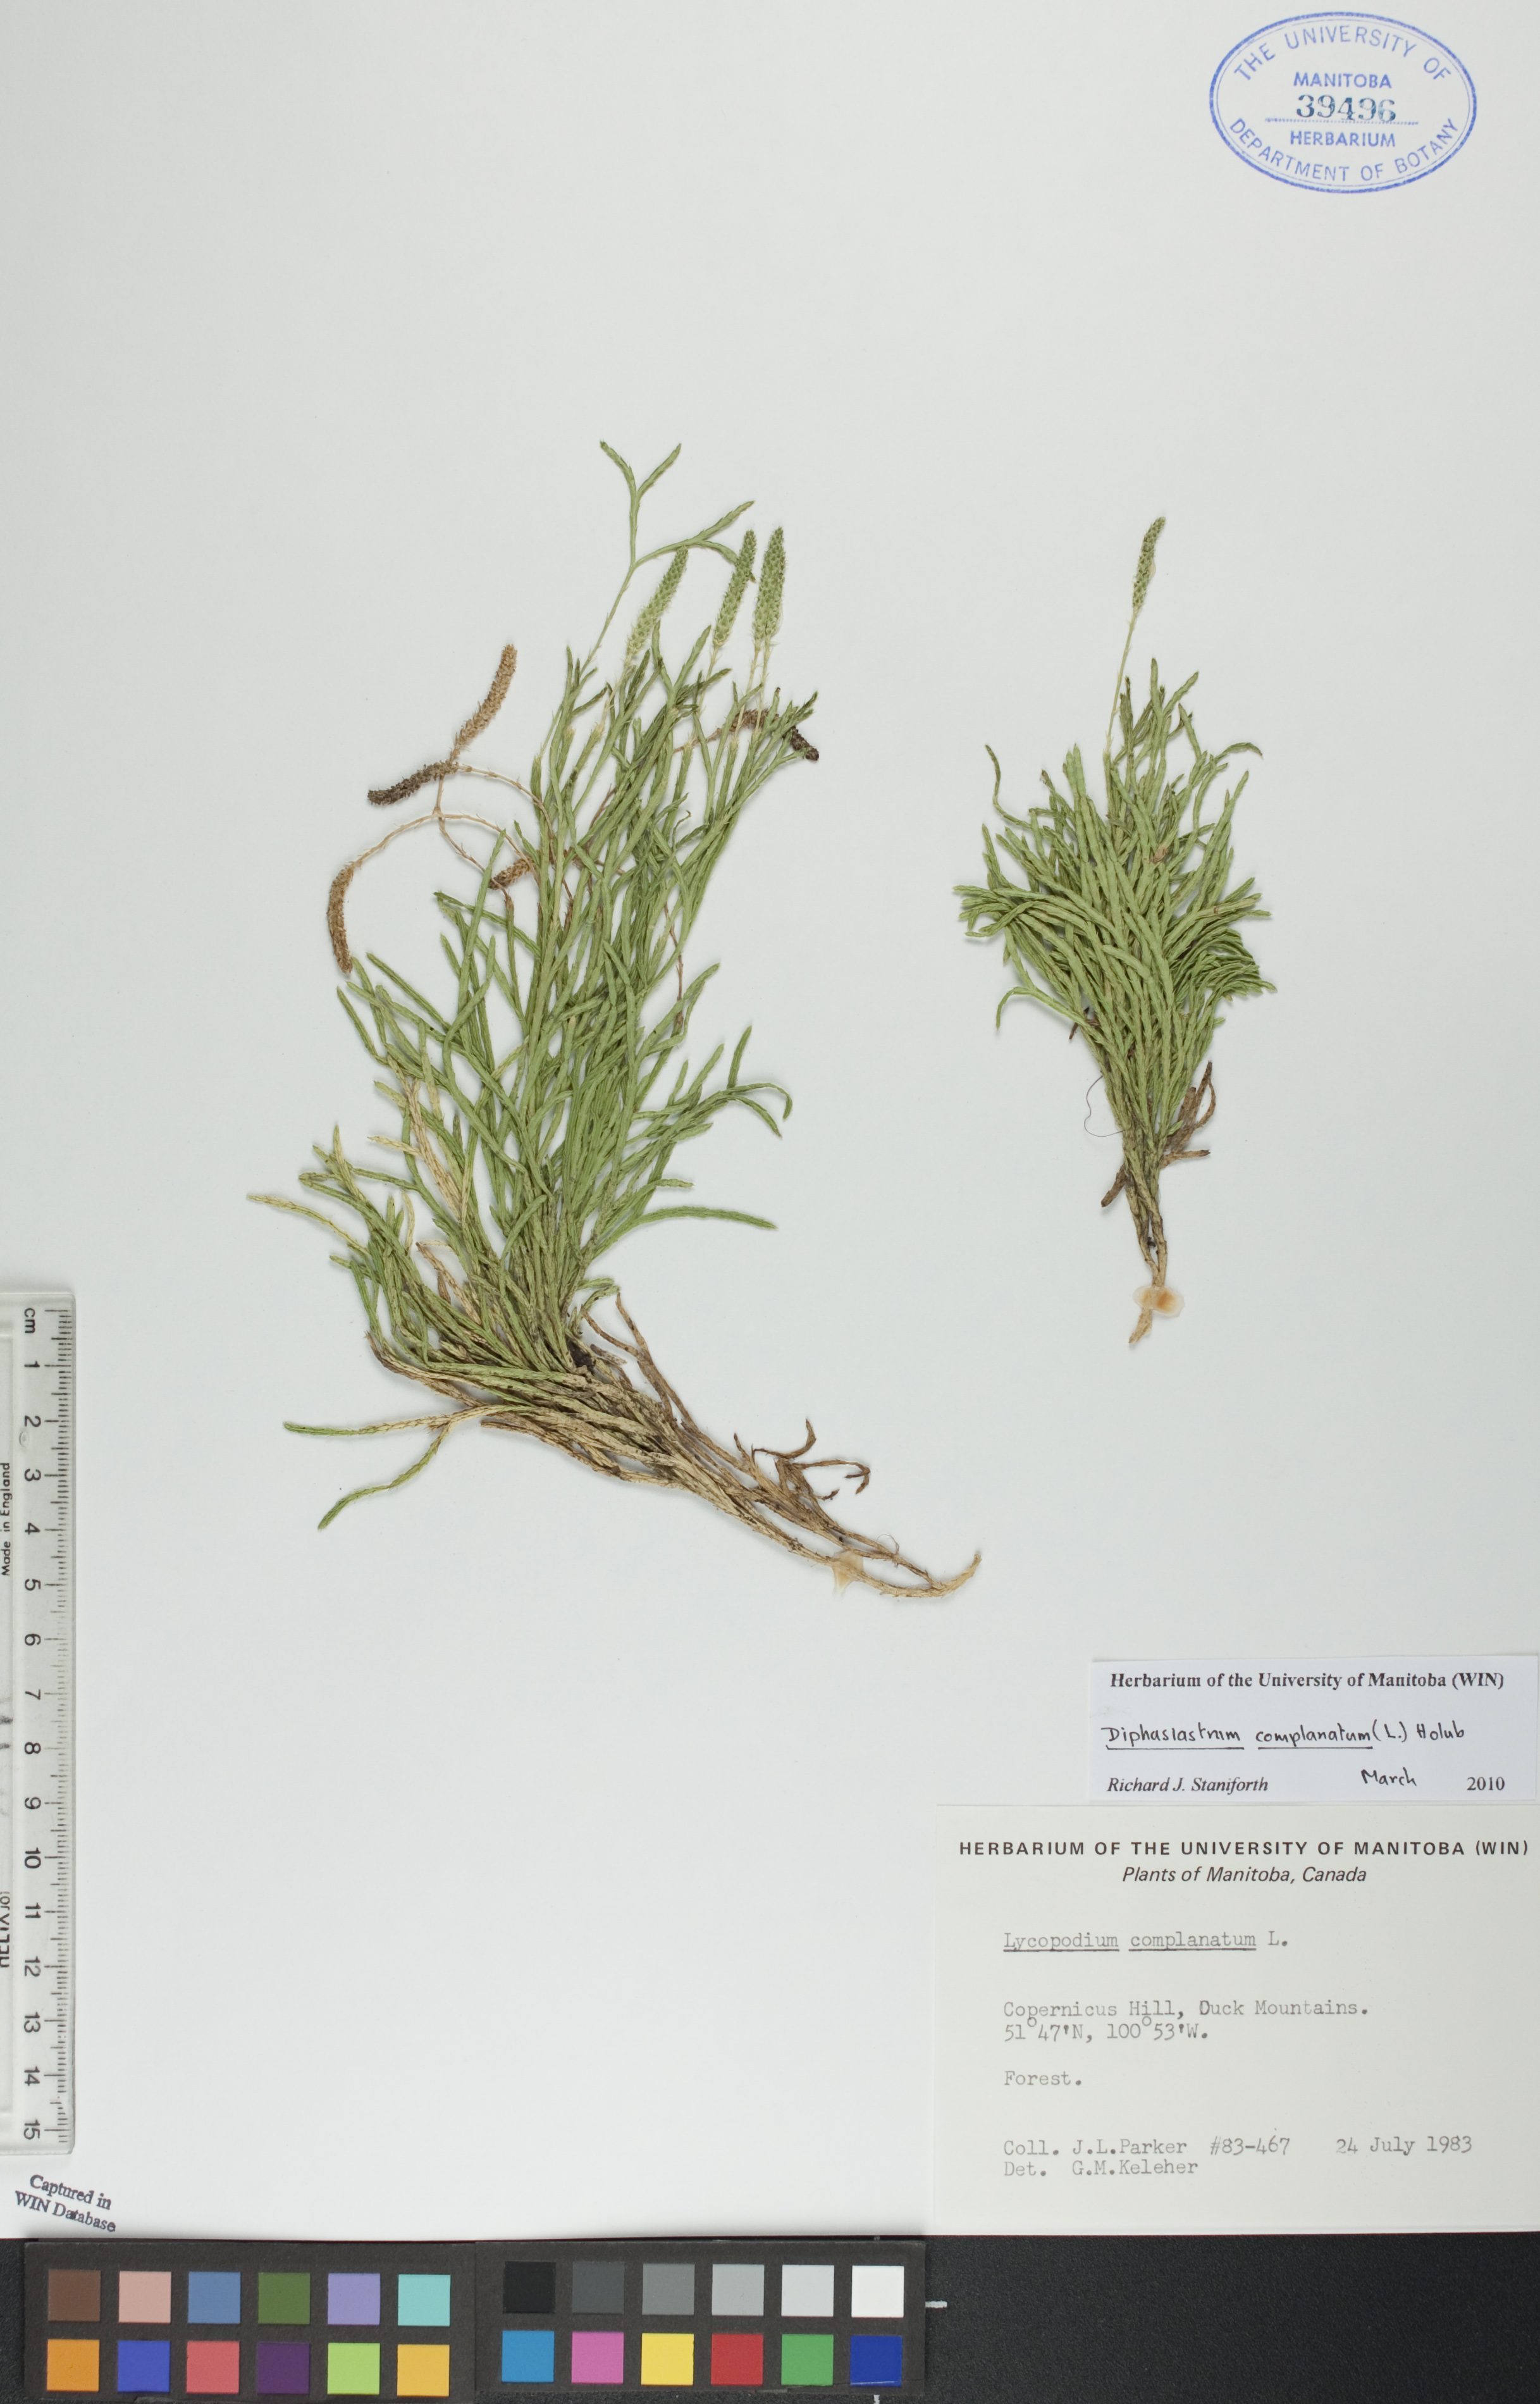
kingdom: Plantae
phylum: Tracheophyta
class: Lycopodiopsida
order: Lycopodiales
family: Lycopodiaceae
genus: Diphasiastrum
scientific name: Diphasiastrum complanatum
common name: Northern running-pine
